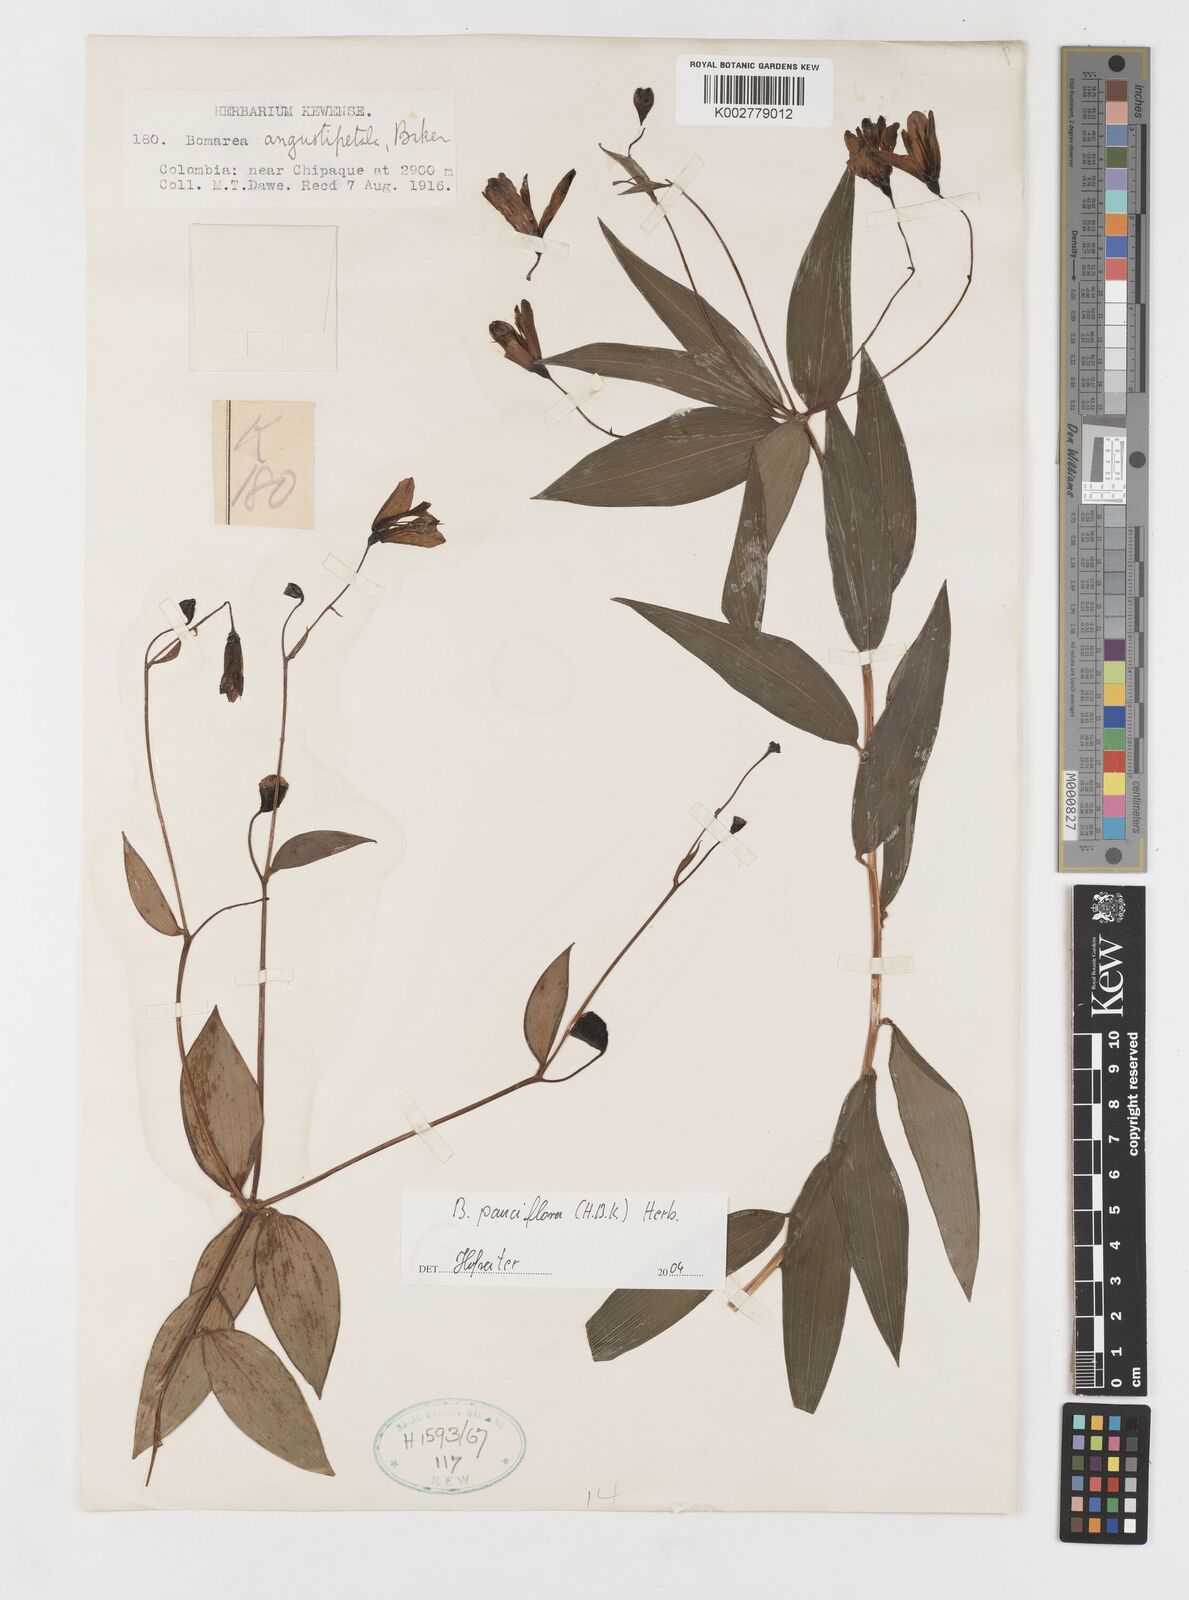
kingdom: Plantae
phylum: Tracheophyta
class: Liliopsida
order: Liliales
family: Alstroemeriaceae
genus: Bomarea
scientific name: Bomarea pauciflora
